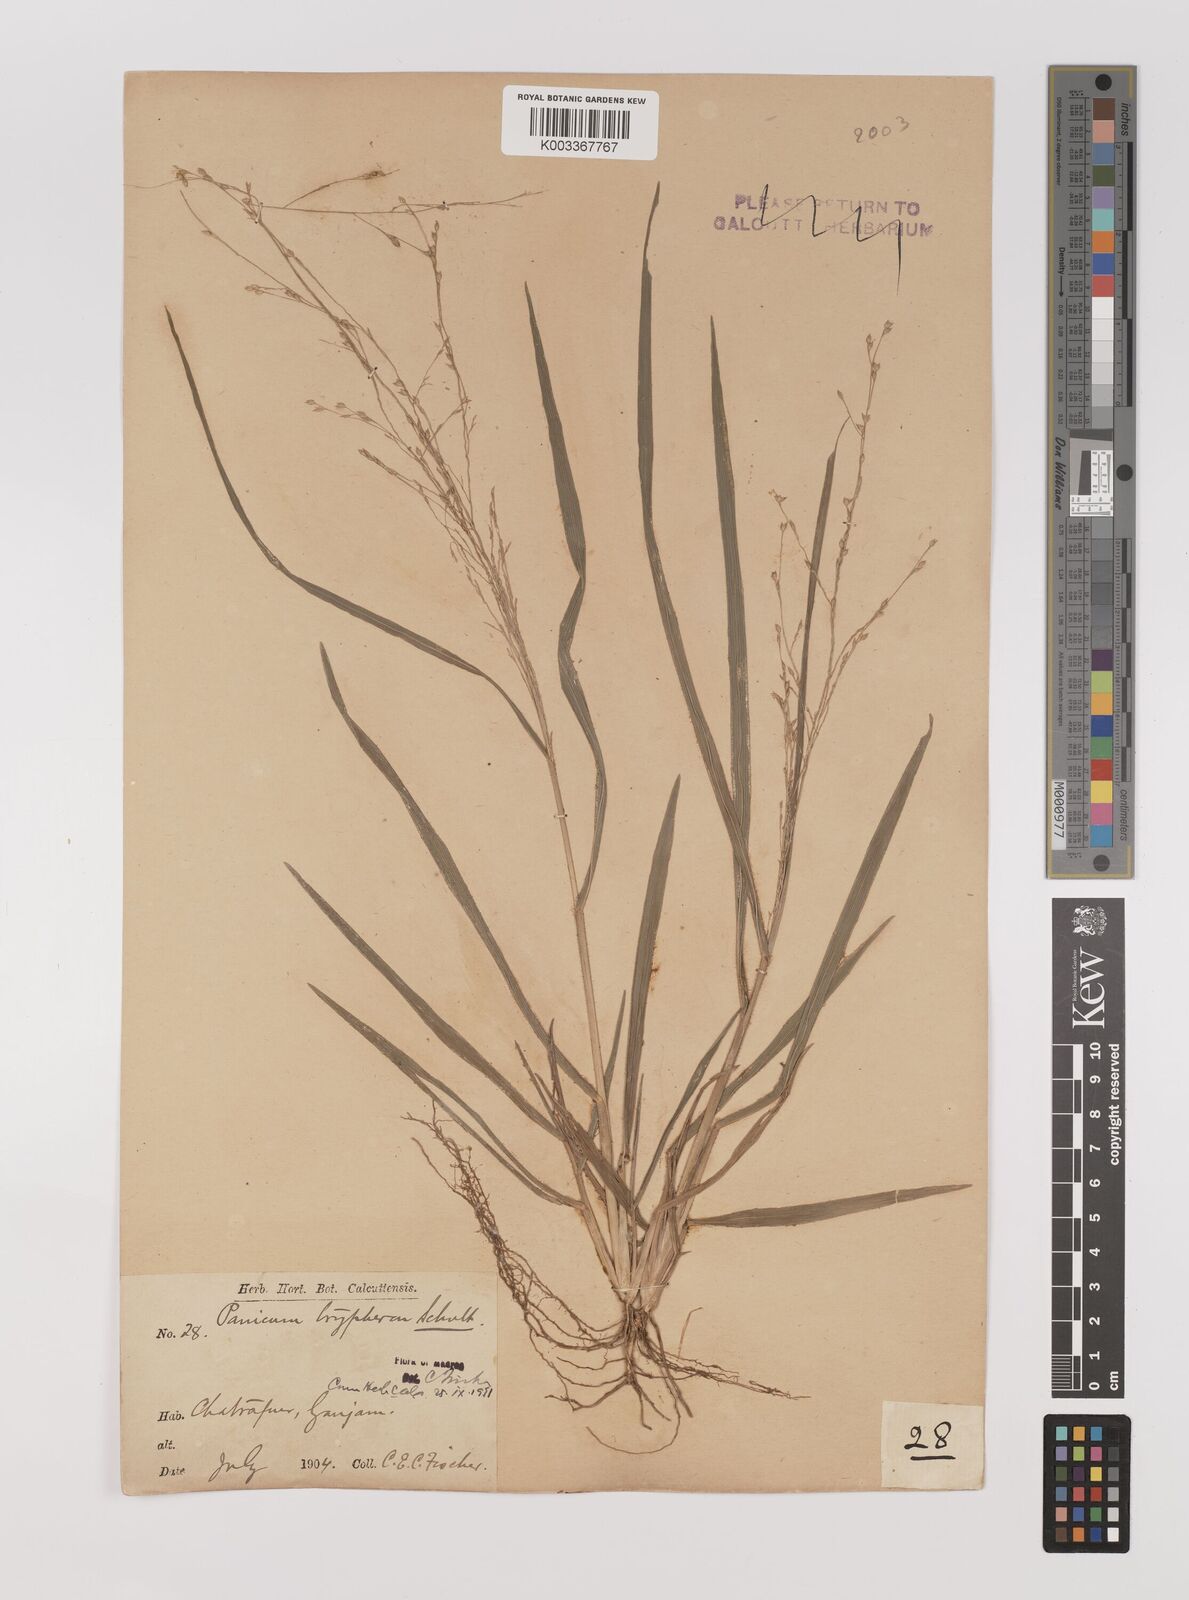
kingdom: Plantae
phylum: Tracheophyta
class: Liliopsida
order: Poales
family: Poaceae
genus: Panicum
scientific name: Panicum curviflorum
